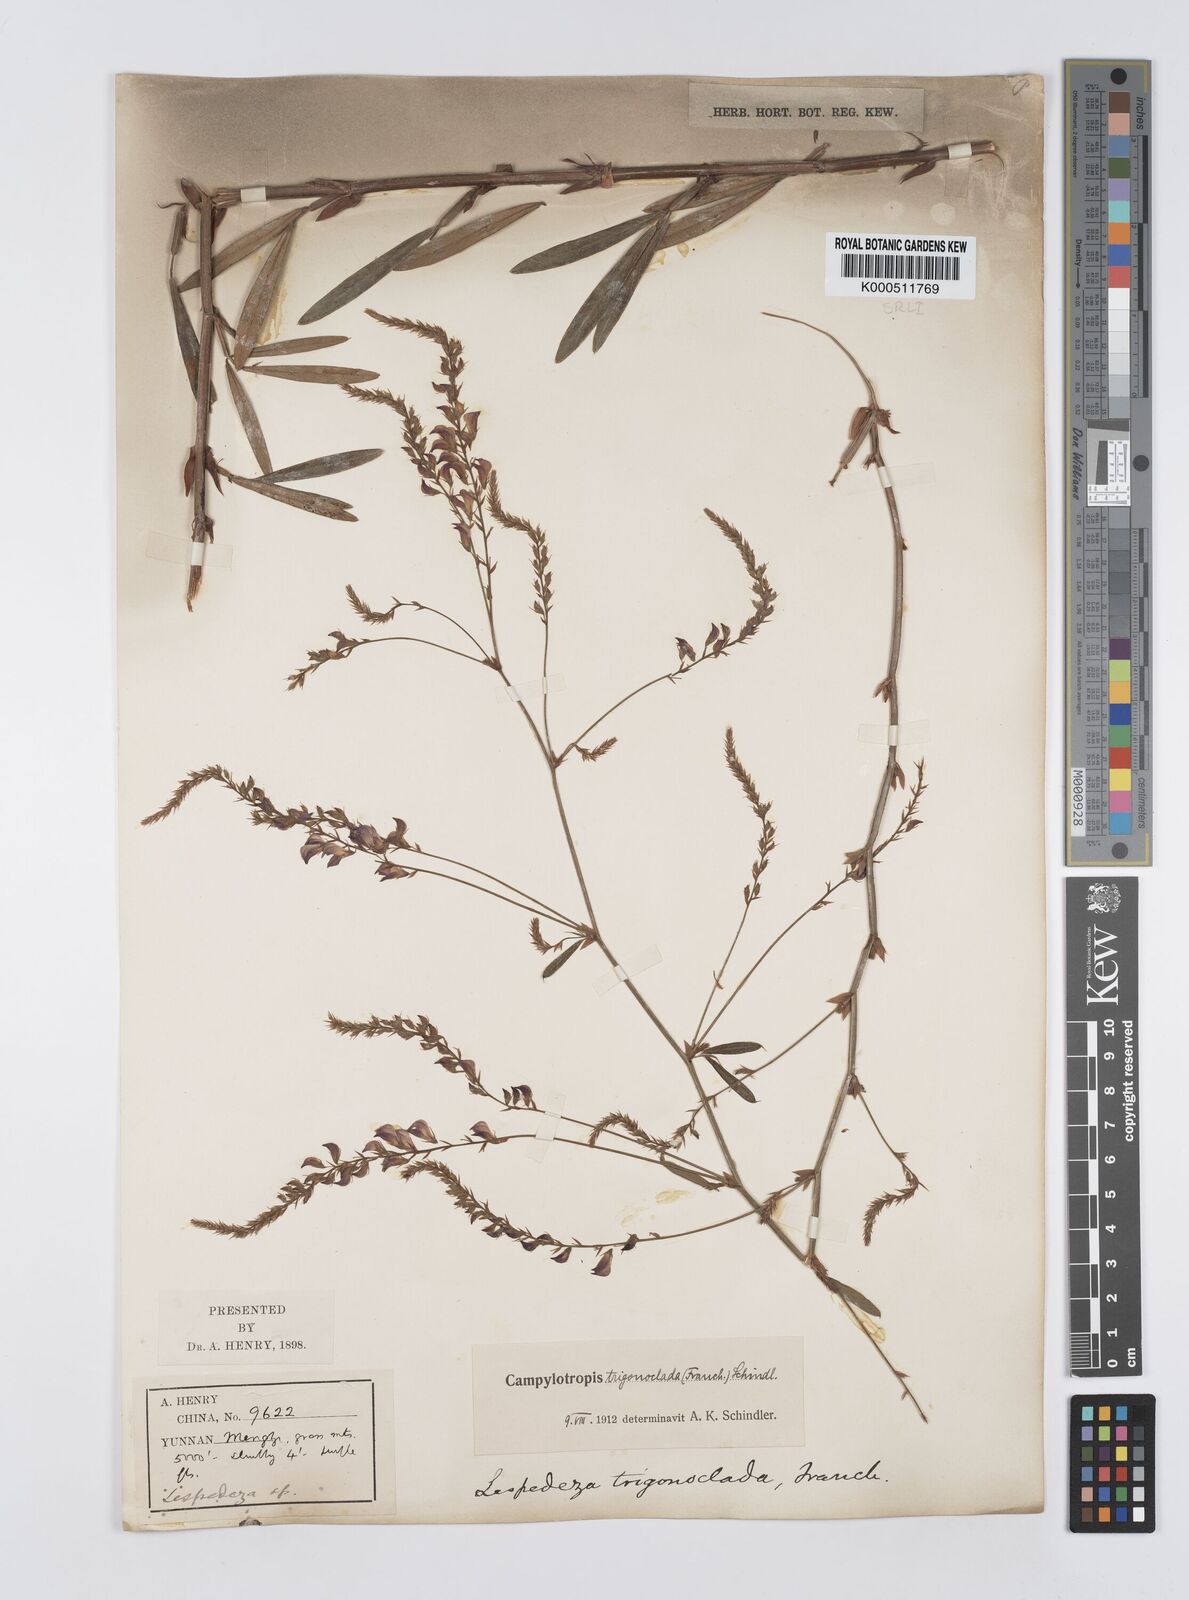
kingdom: Plantae
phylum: Tracheophyta
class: Magnoliopsida
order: Fabales
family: Fabaceae
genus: Campylotropis
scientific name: Campylotropis trigonoclada
